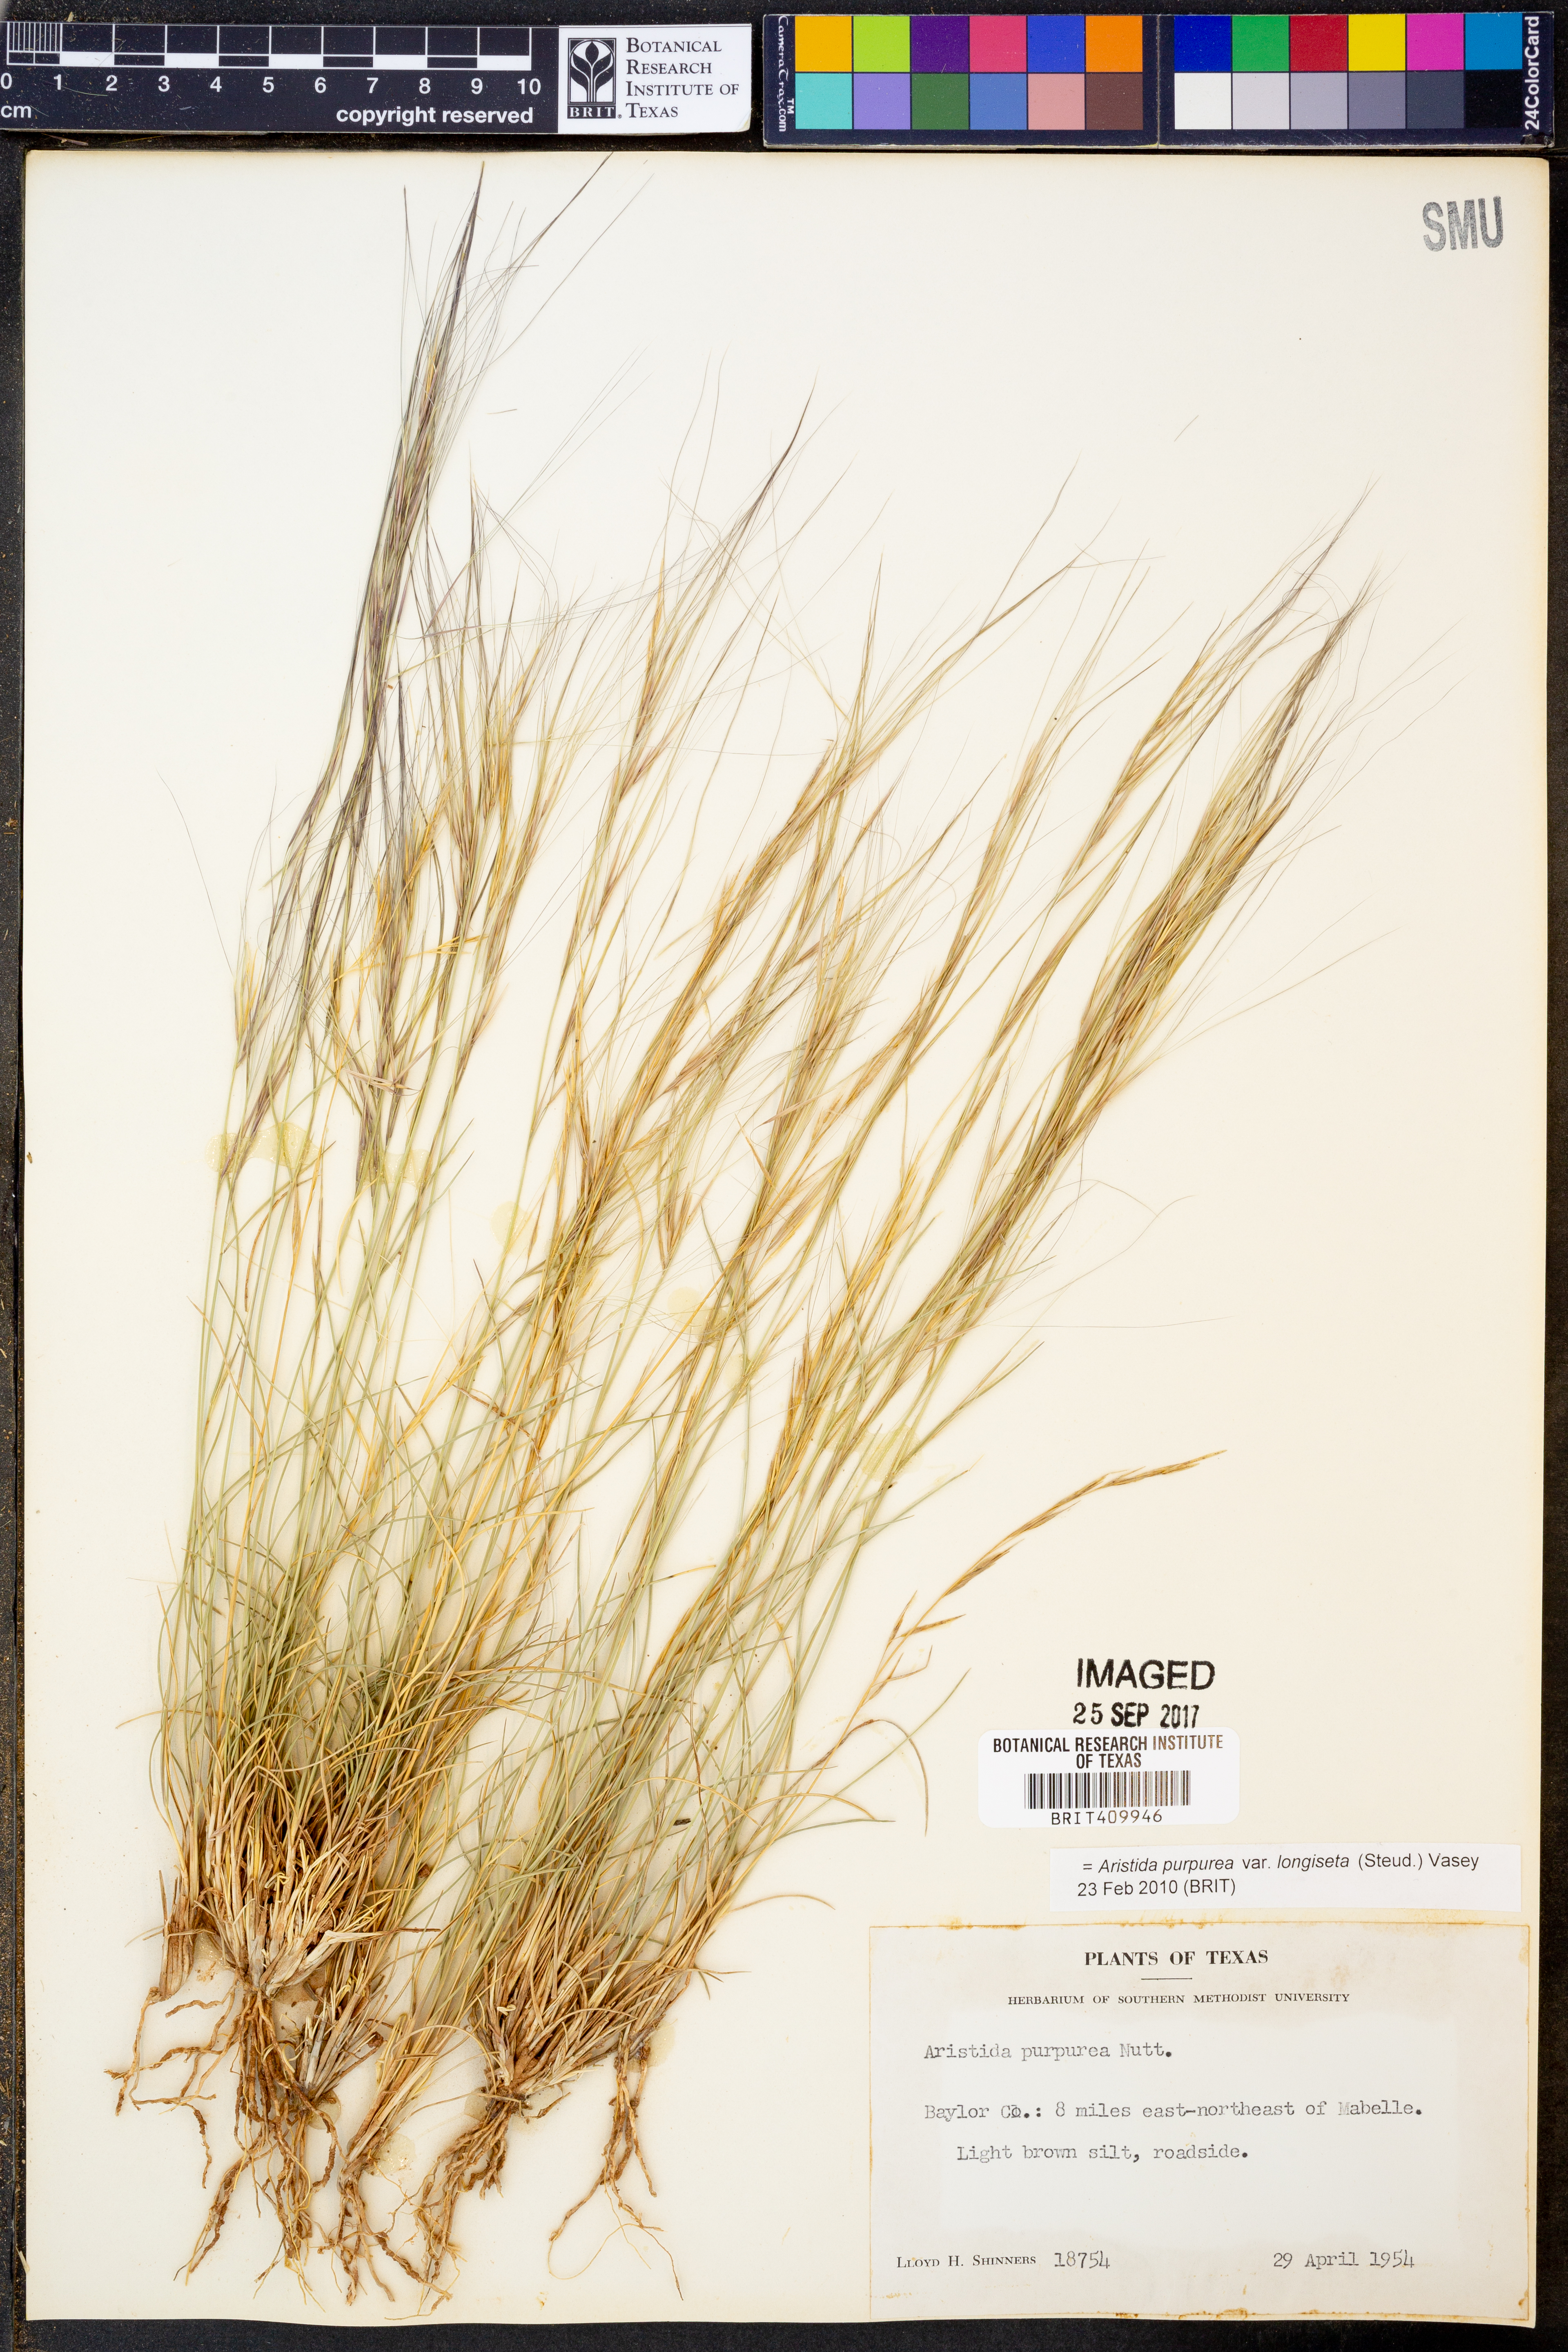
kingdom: Plantae
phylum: Tracheophyta
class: Liliopsida
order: Poales
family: Poaceae
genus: Aristida
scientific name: Aristida longiseta
